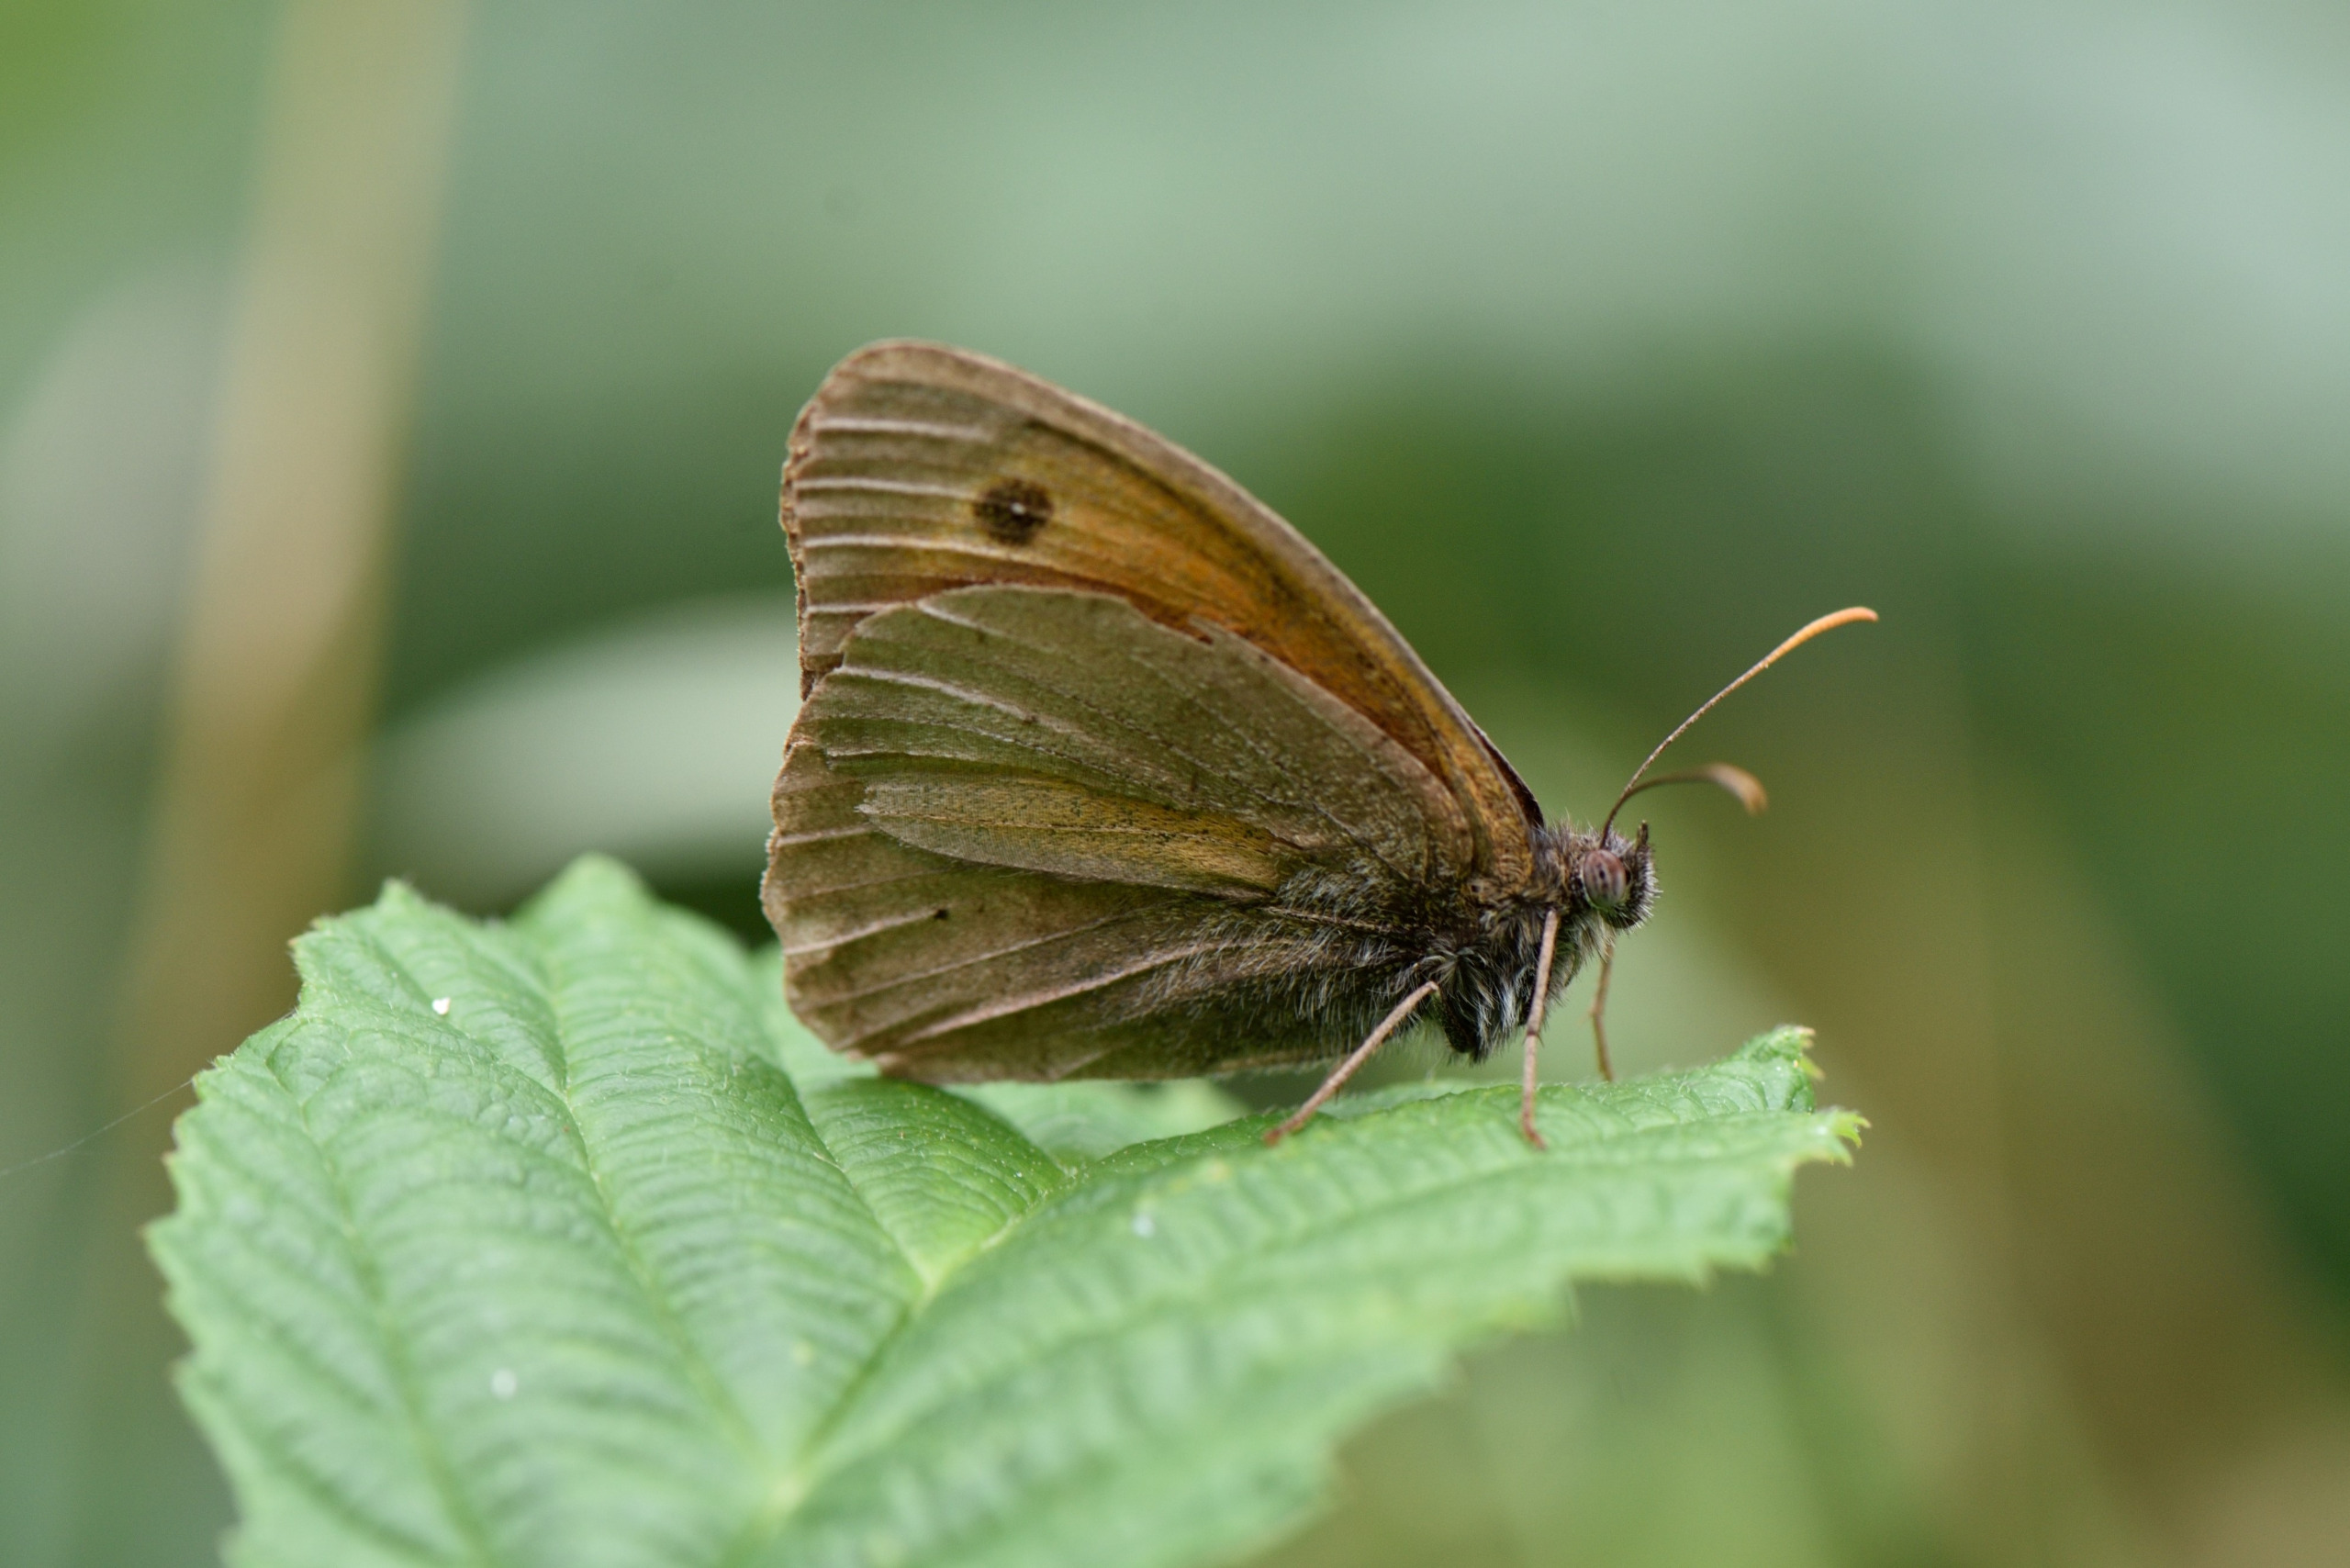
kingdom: Animalia
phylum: Arthropoda
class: Insecta
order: Lepidoptera
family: Nymphalidae
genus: Maniola
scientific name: Maniola jurtina
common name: Græsrandøje
